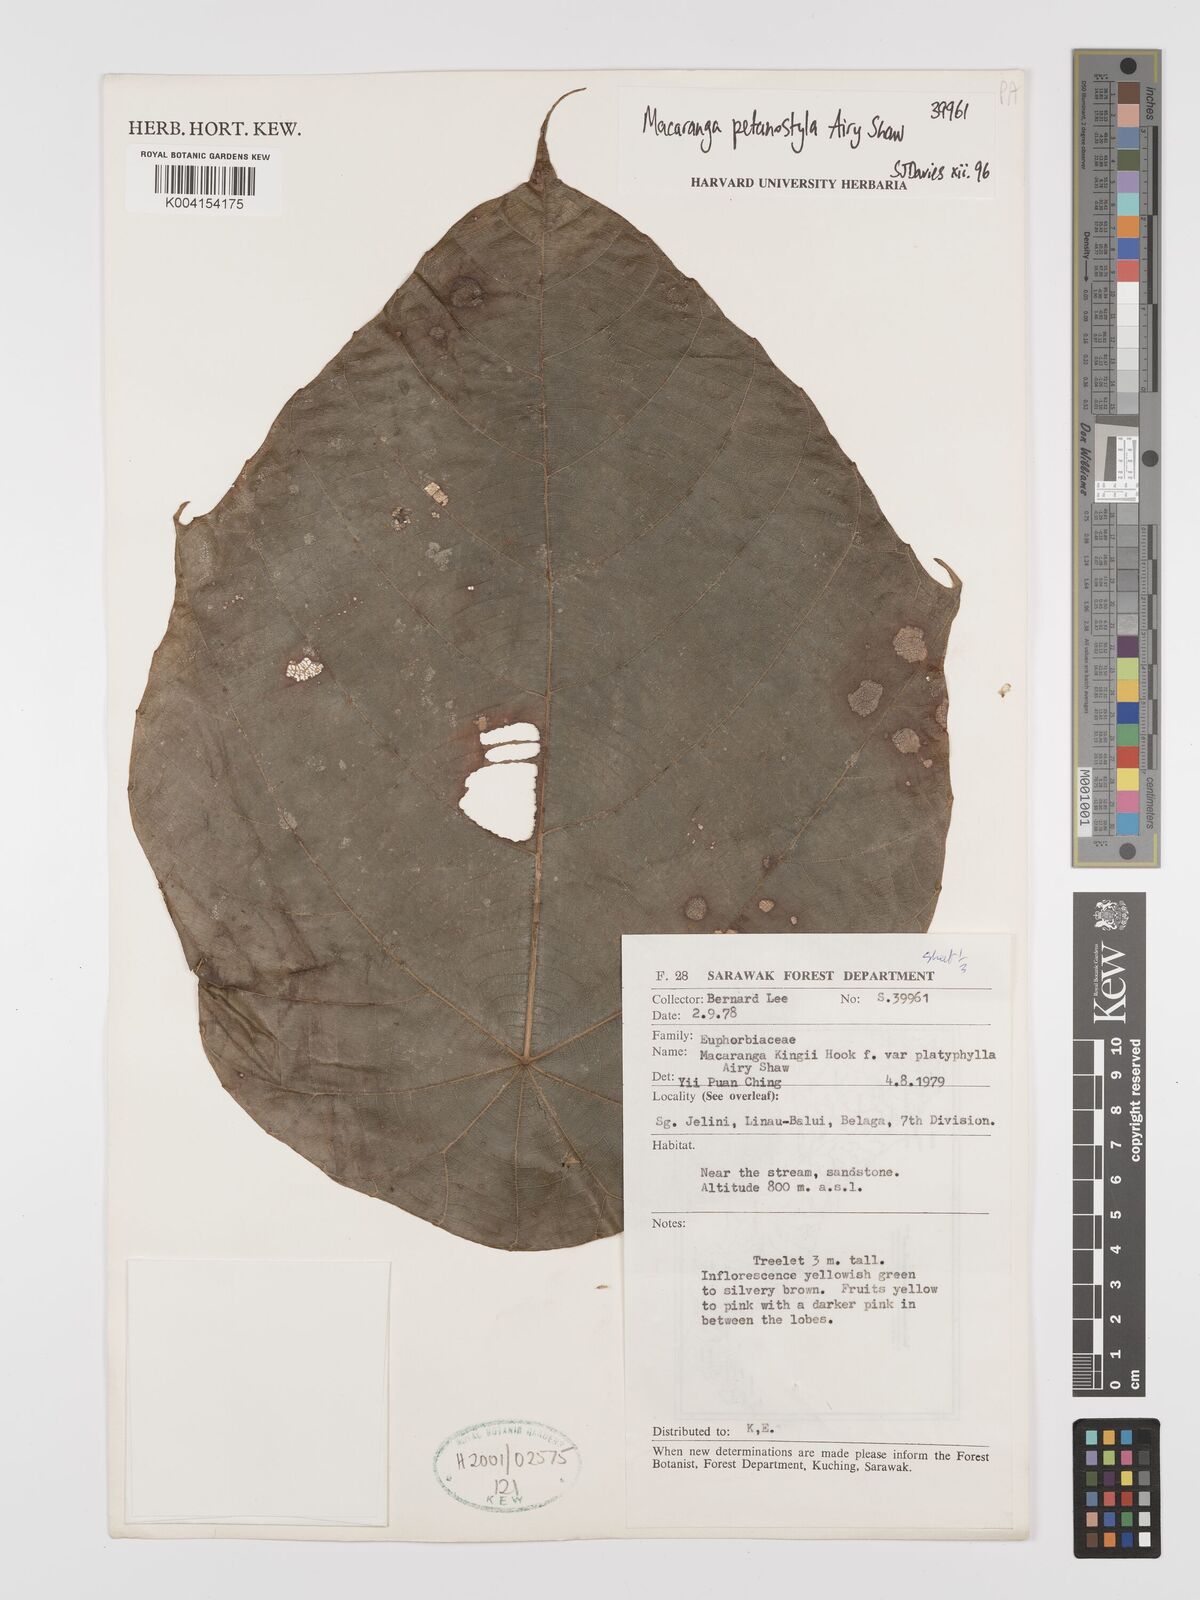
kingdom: Plantae
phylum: Tracheophyta
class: Magnoliopsida
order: Malpighiales
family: Euphorbiaceae
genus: Macaranga
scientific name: Macaranga petanostyla
